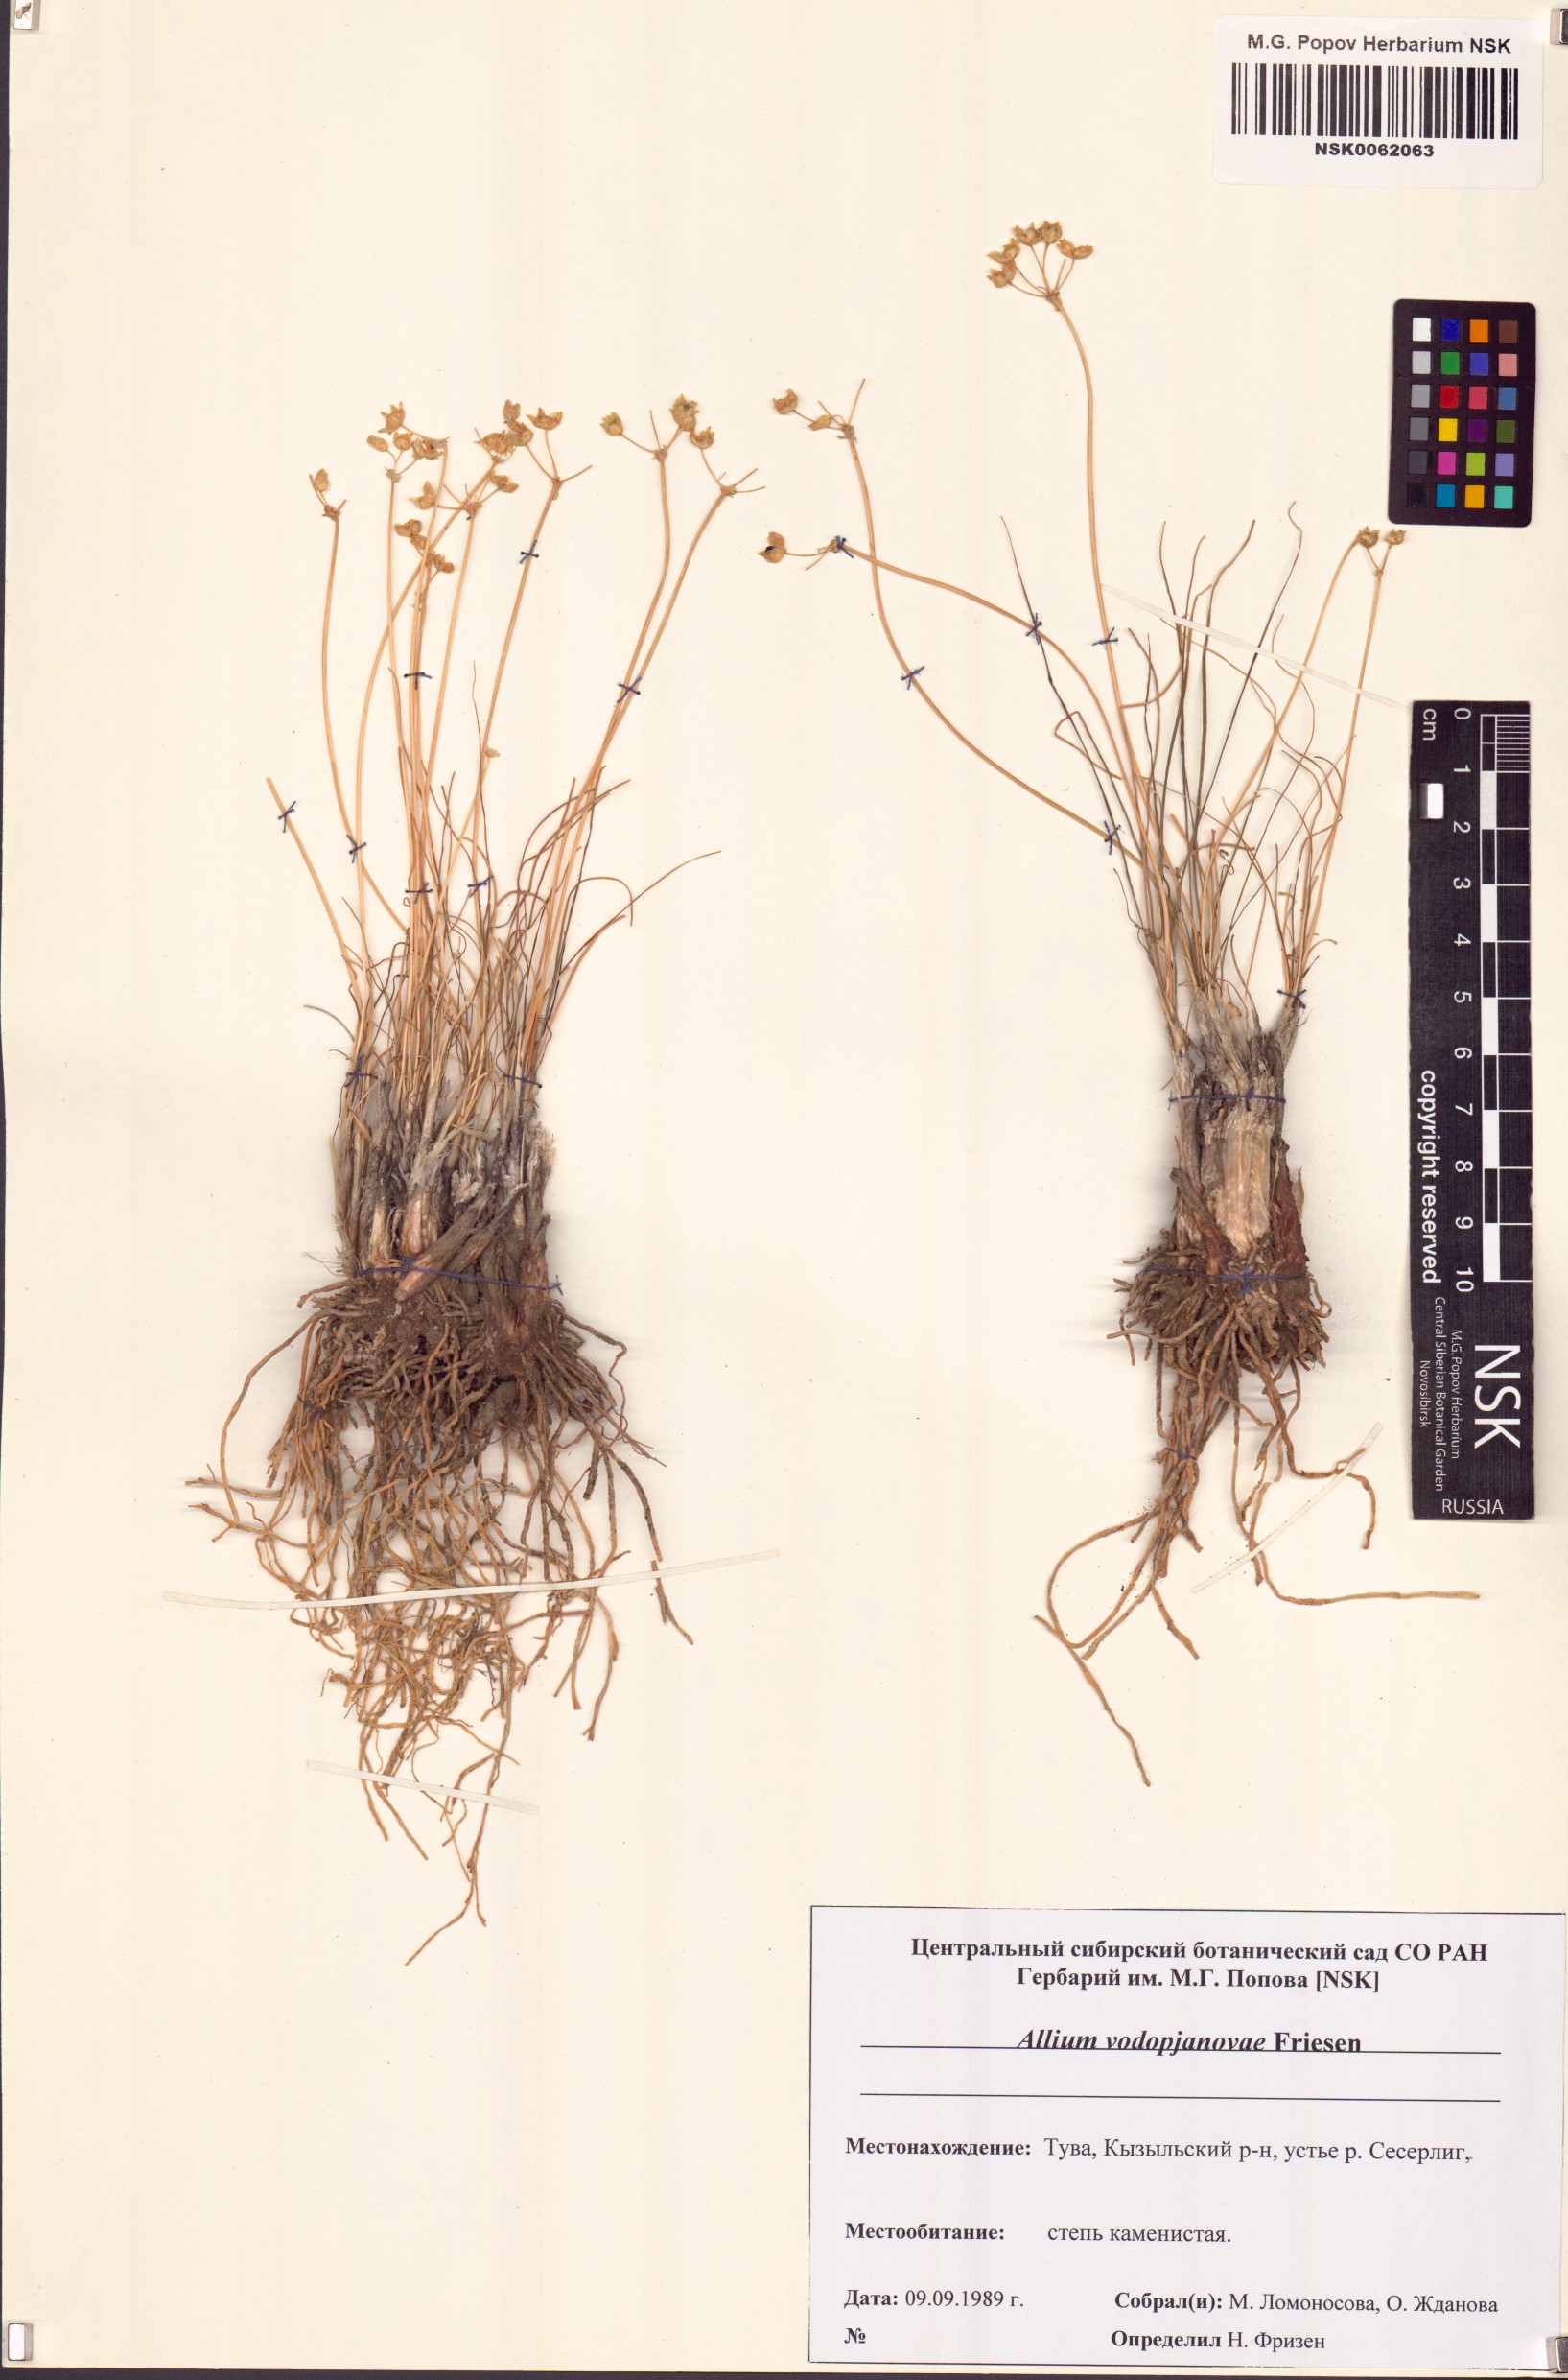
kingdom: Plantae
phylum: Tracheophyta
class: Liliopsida
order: Asparagales
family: Amaryllidaceae
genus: Allium
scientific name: Allium vodopjanovae
